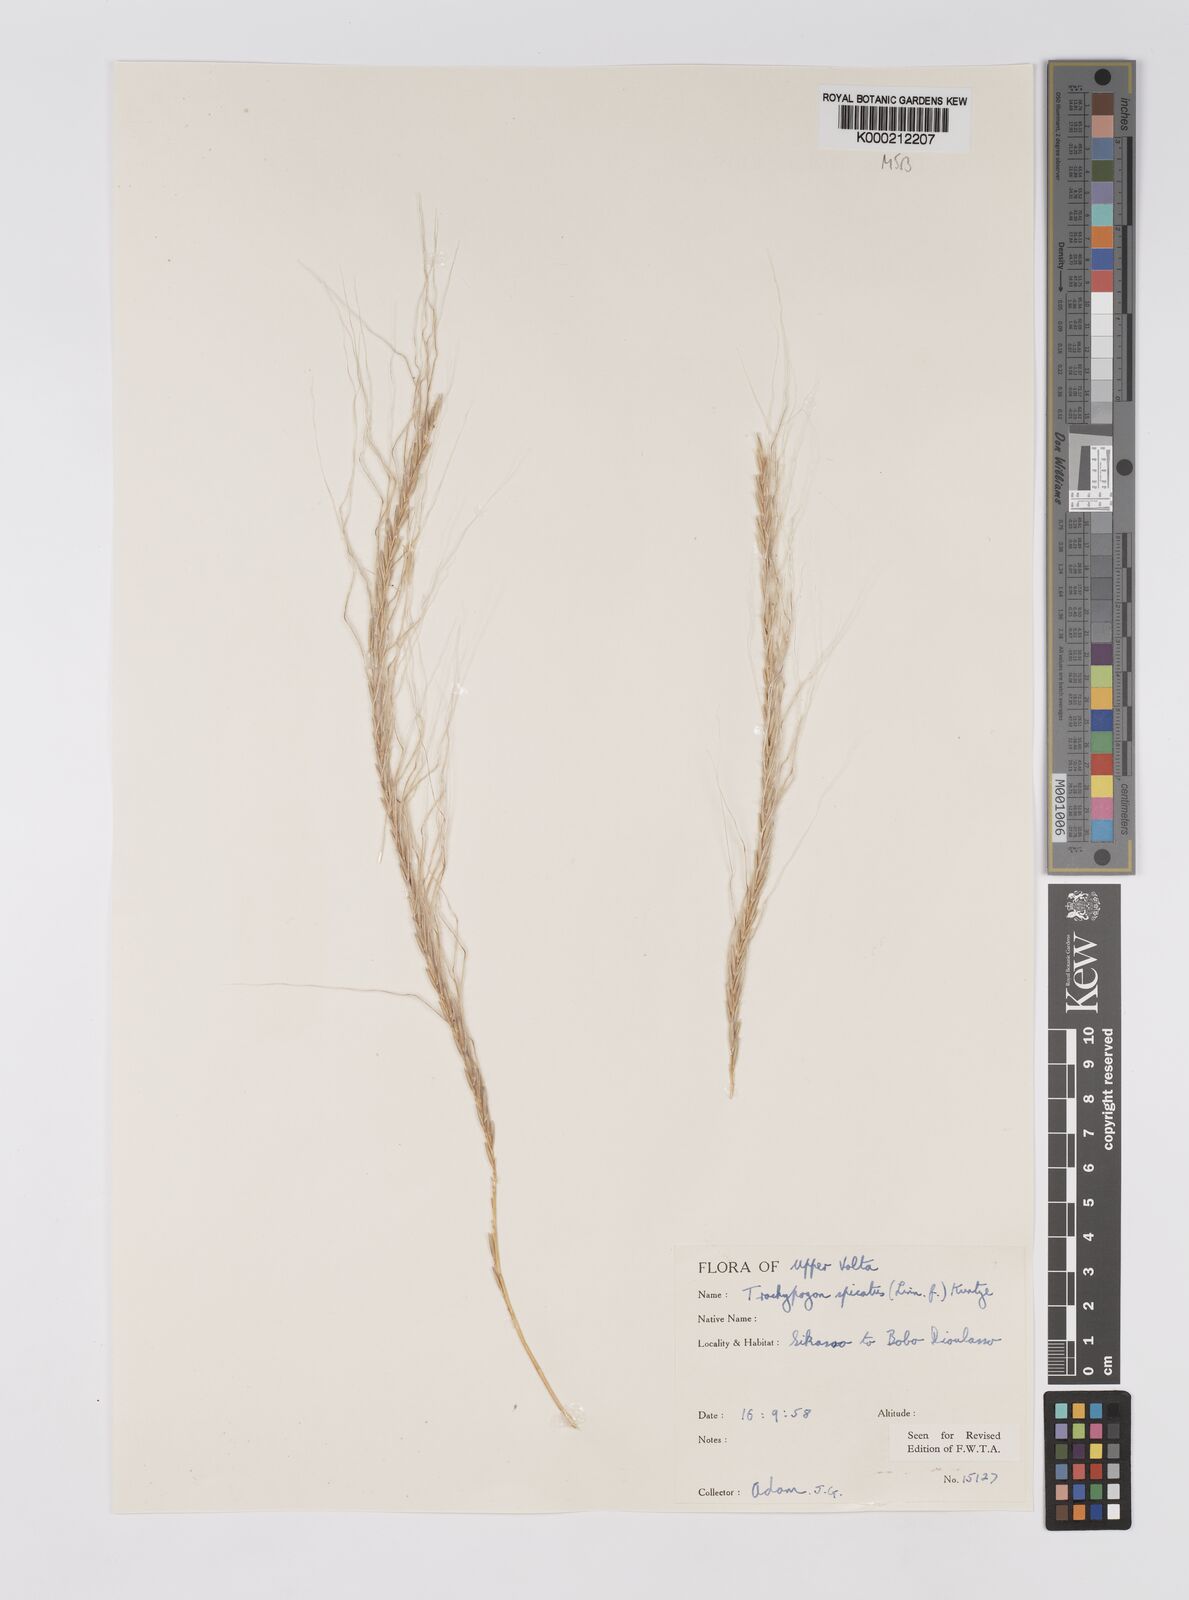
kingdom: Plantae
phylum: Tracheophyta
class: Liliopsida
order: Poales
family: Poaceae
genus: Trachypogon
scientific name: Trachypogon spicatus
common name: Crinkle-awn
